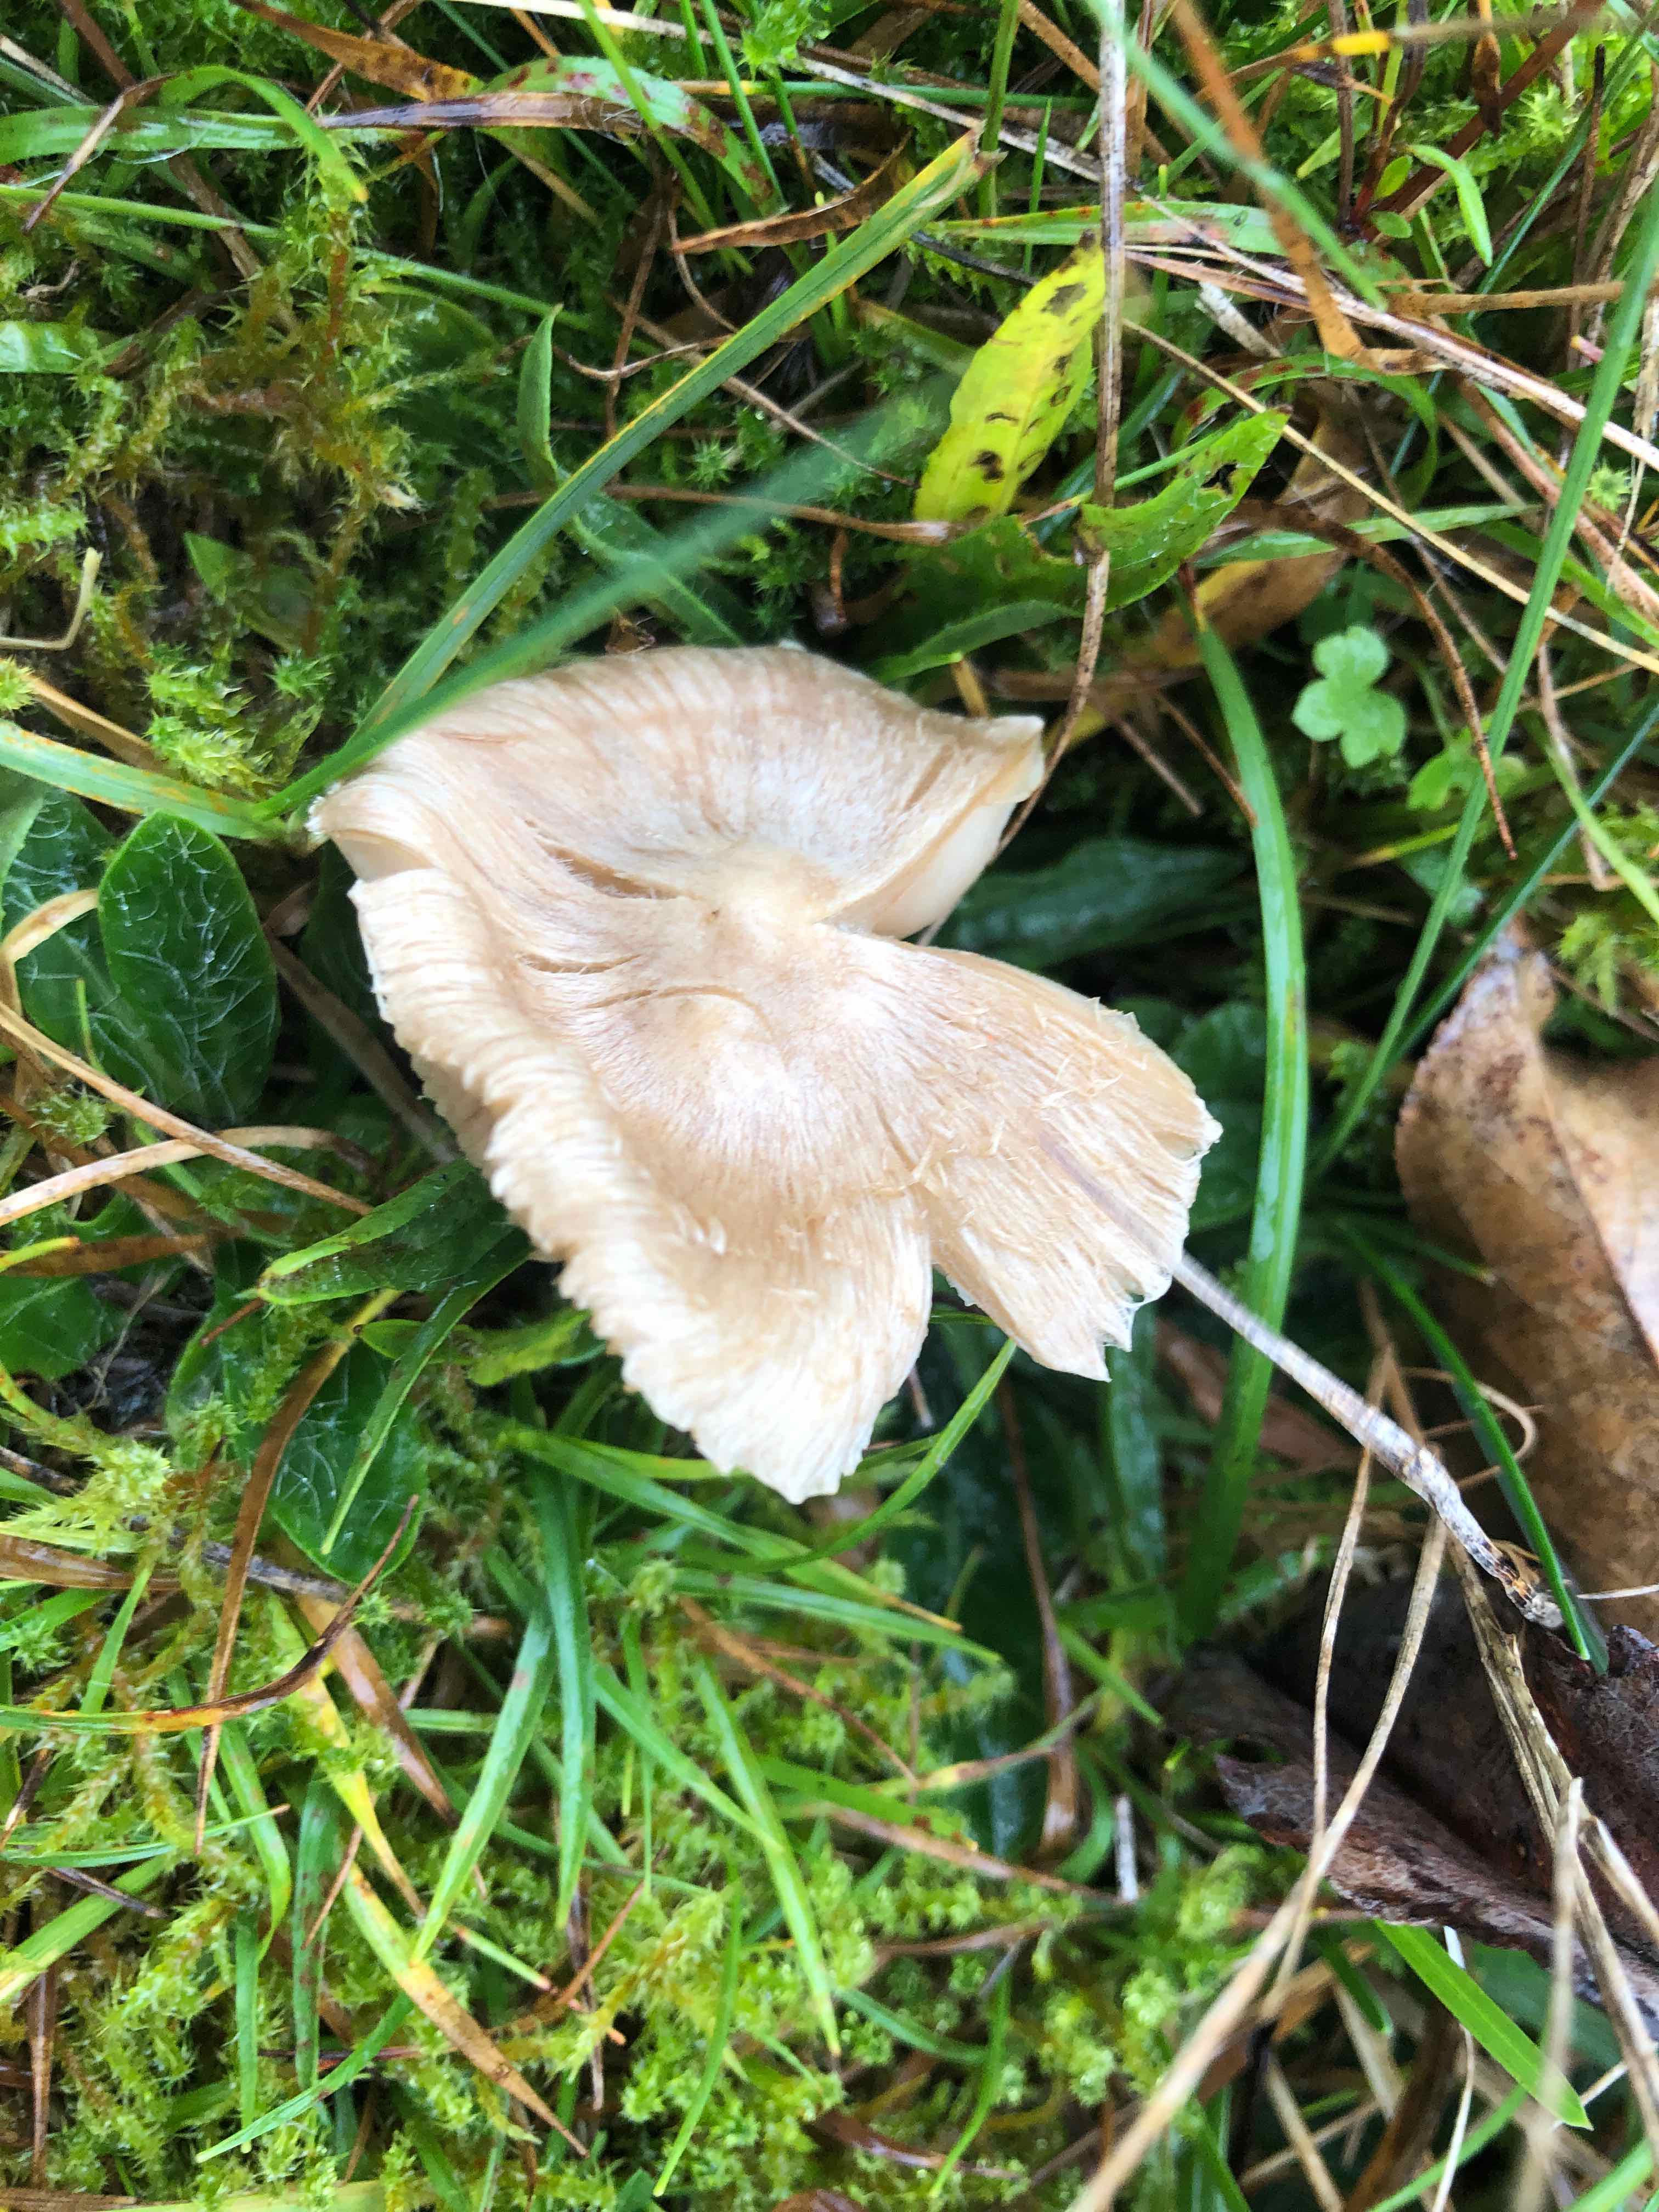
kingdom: Fungi
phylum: Basidiomycota
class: Agaricomycetes
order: Agaricales
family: Inocybaceae
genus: Inocybe
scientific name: Inocybe
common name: trævlhat
